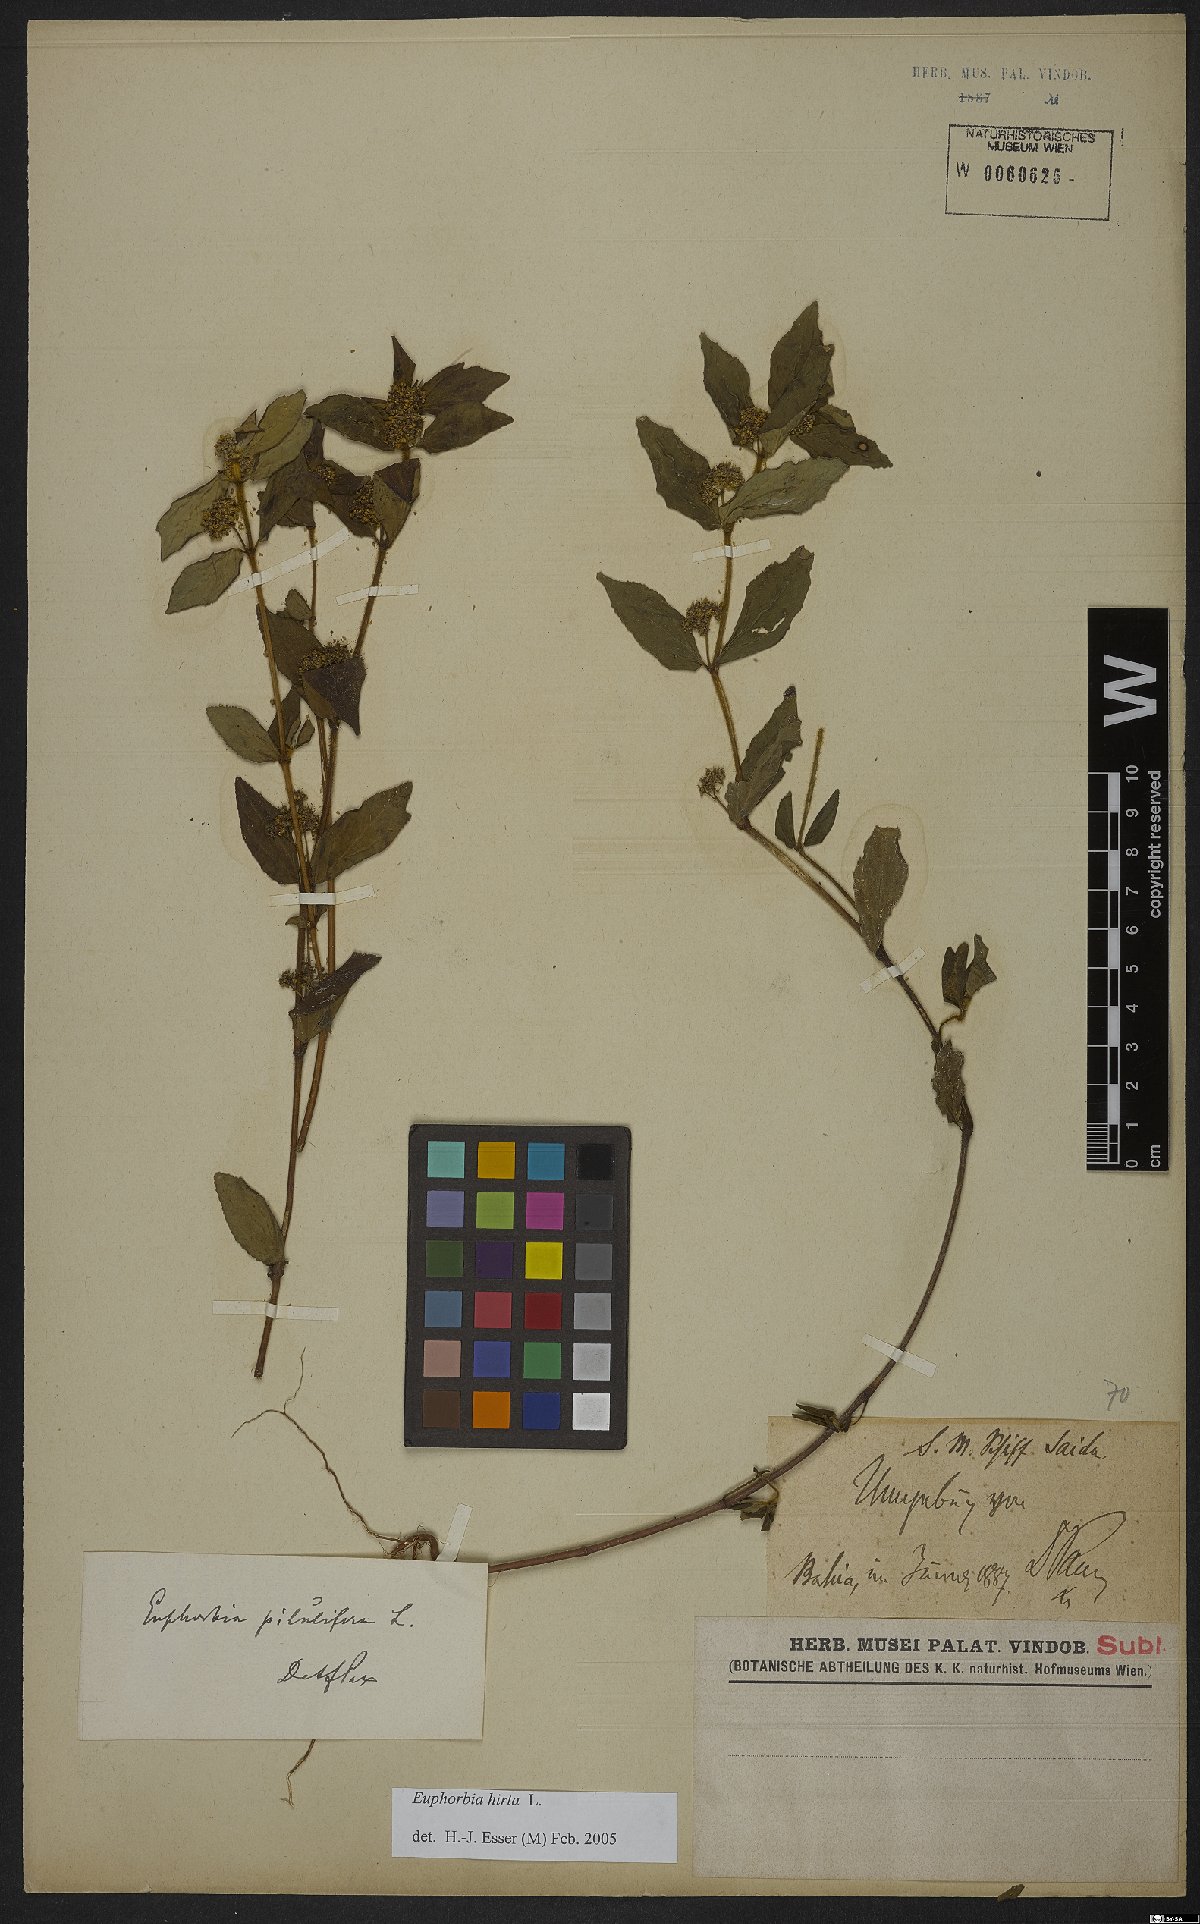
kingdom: Plantae
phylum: Tracheophyta
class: Magnoliopsida
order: Malpighiales
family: Euphorbiaceae
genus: Euphorbia
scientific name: Euphorbia hirta
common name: Pillpod sandmat
